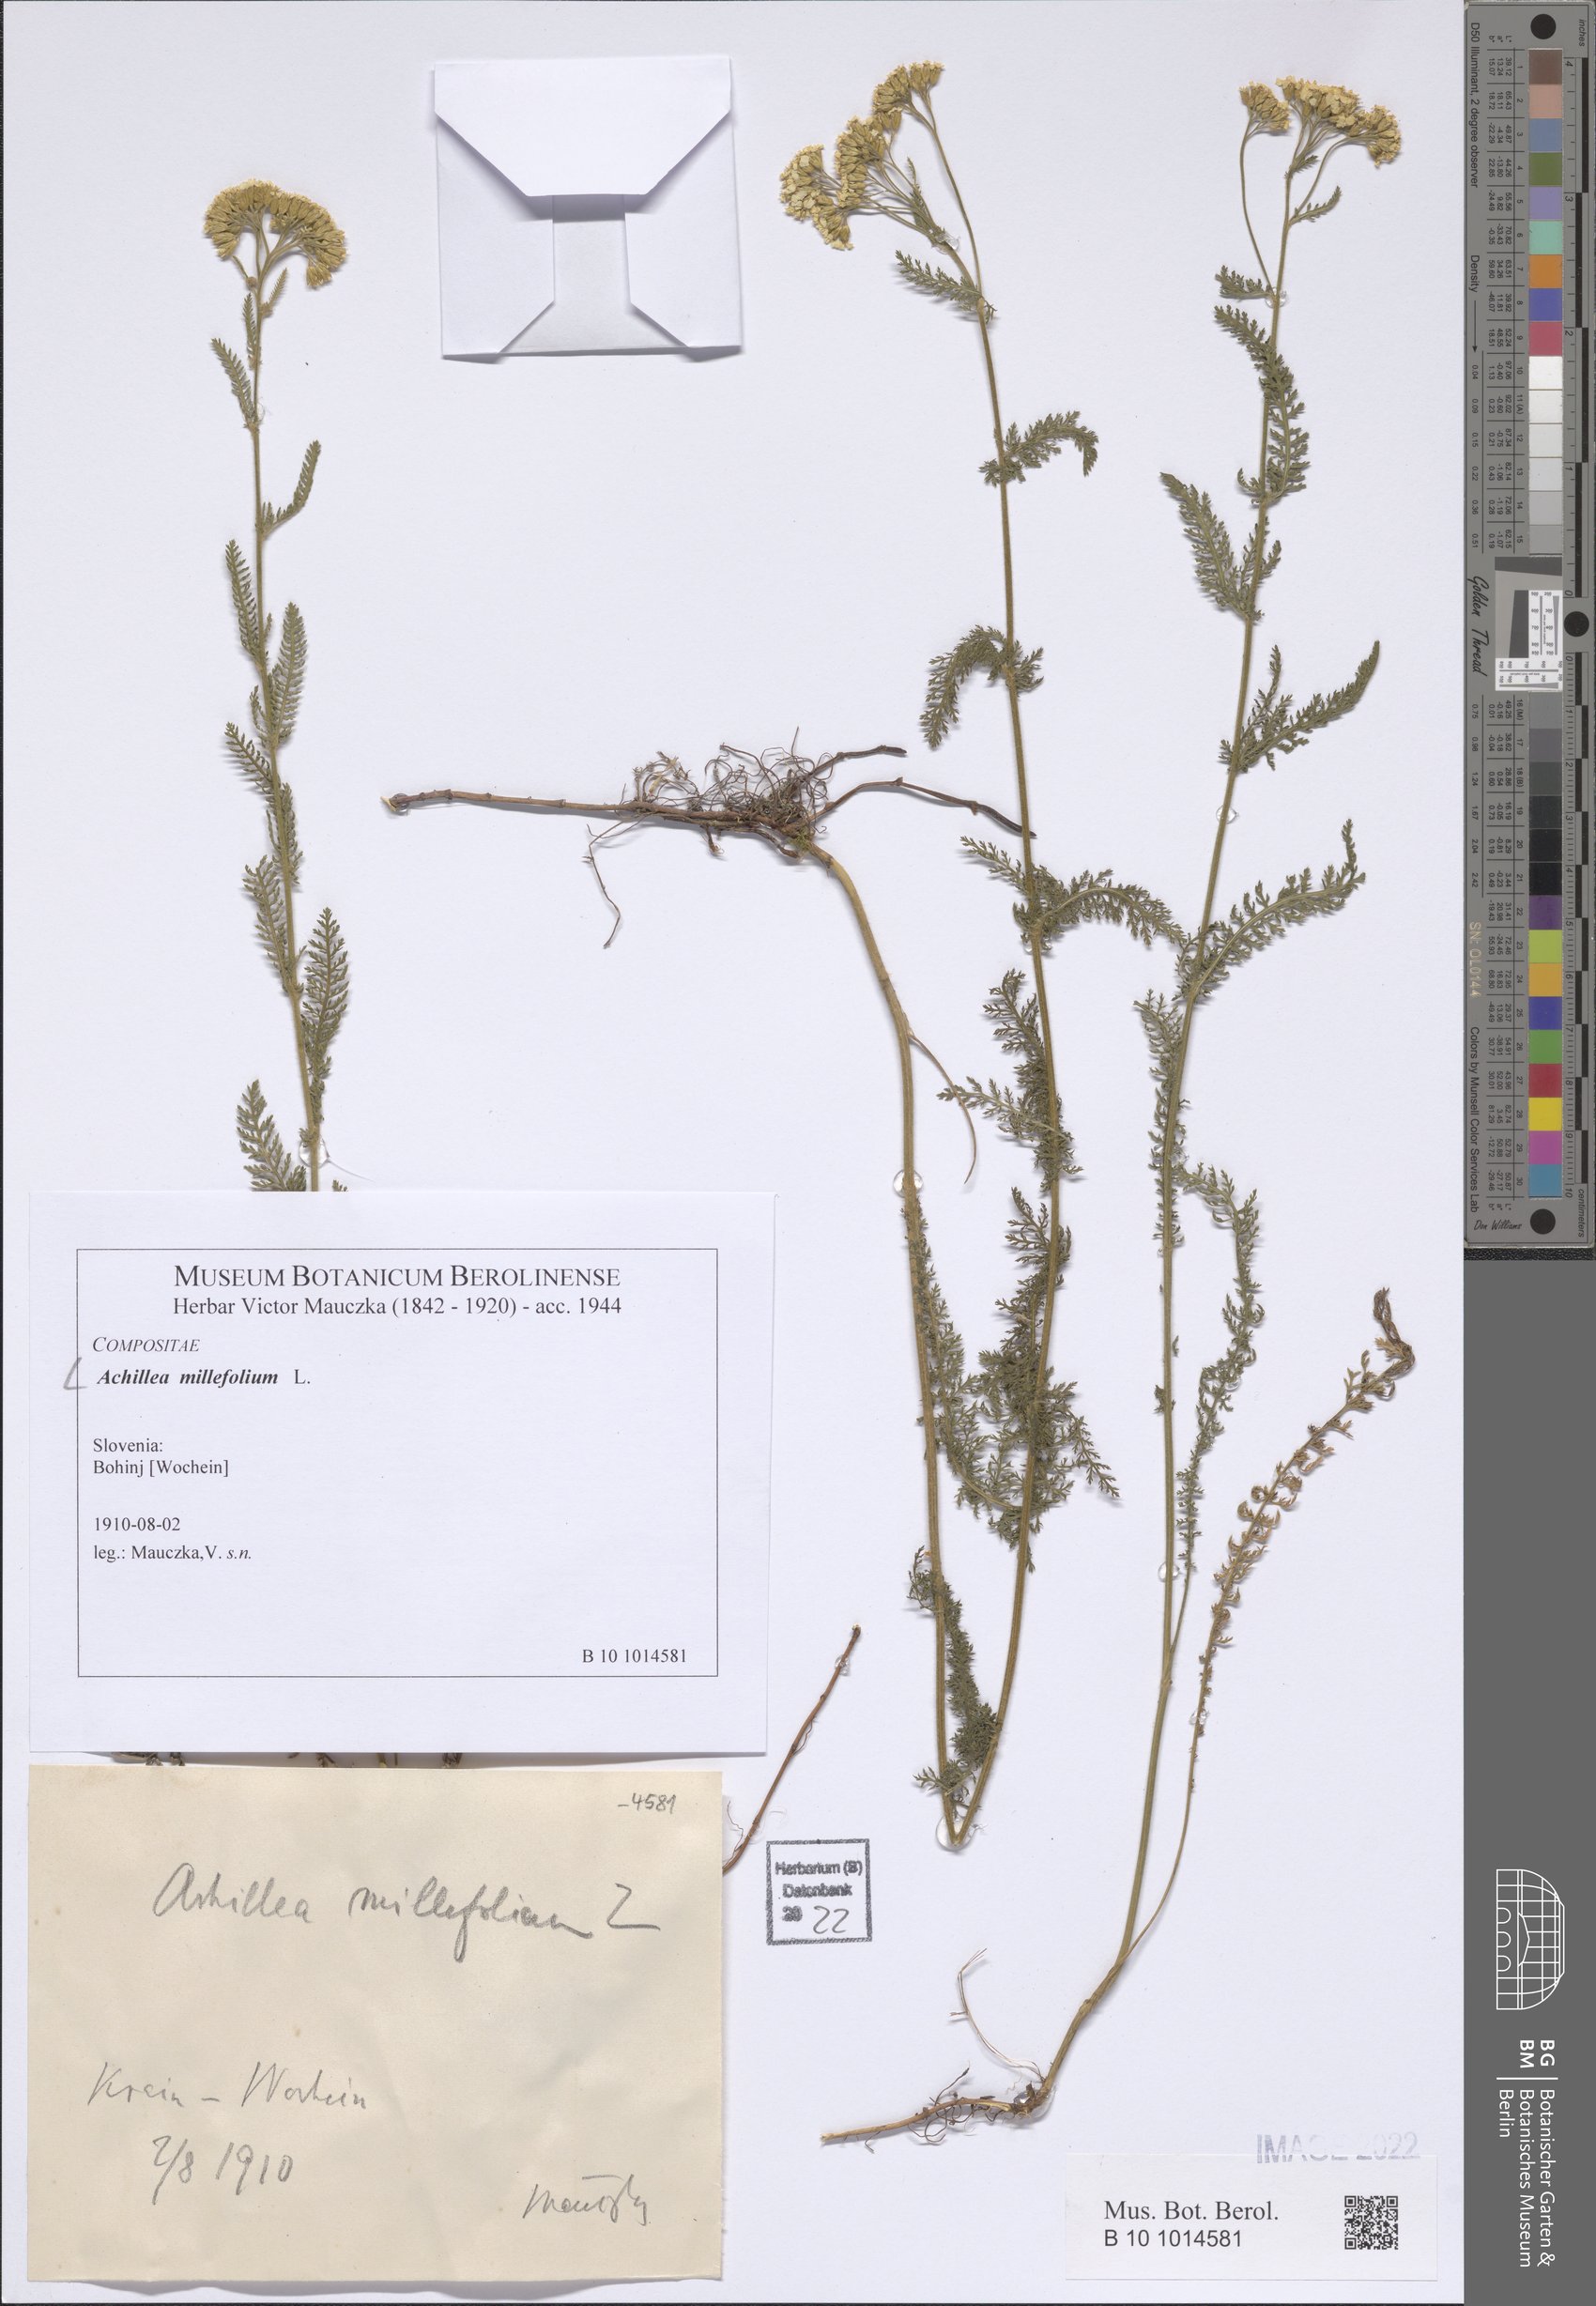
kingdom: Plantae
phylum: Tracheophyta
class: Magnoliopsida
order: Asterales
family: Asteraceae
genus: Achillea
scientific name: Achillea millefolium
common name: Yarrow
